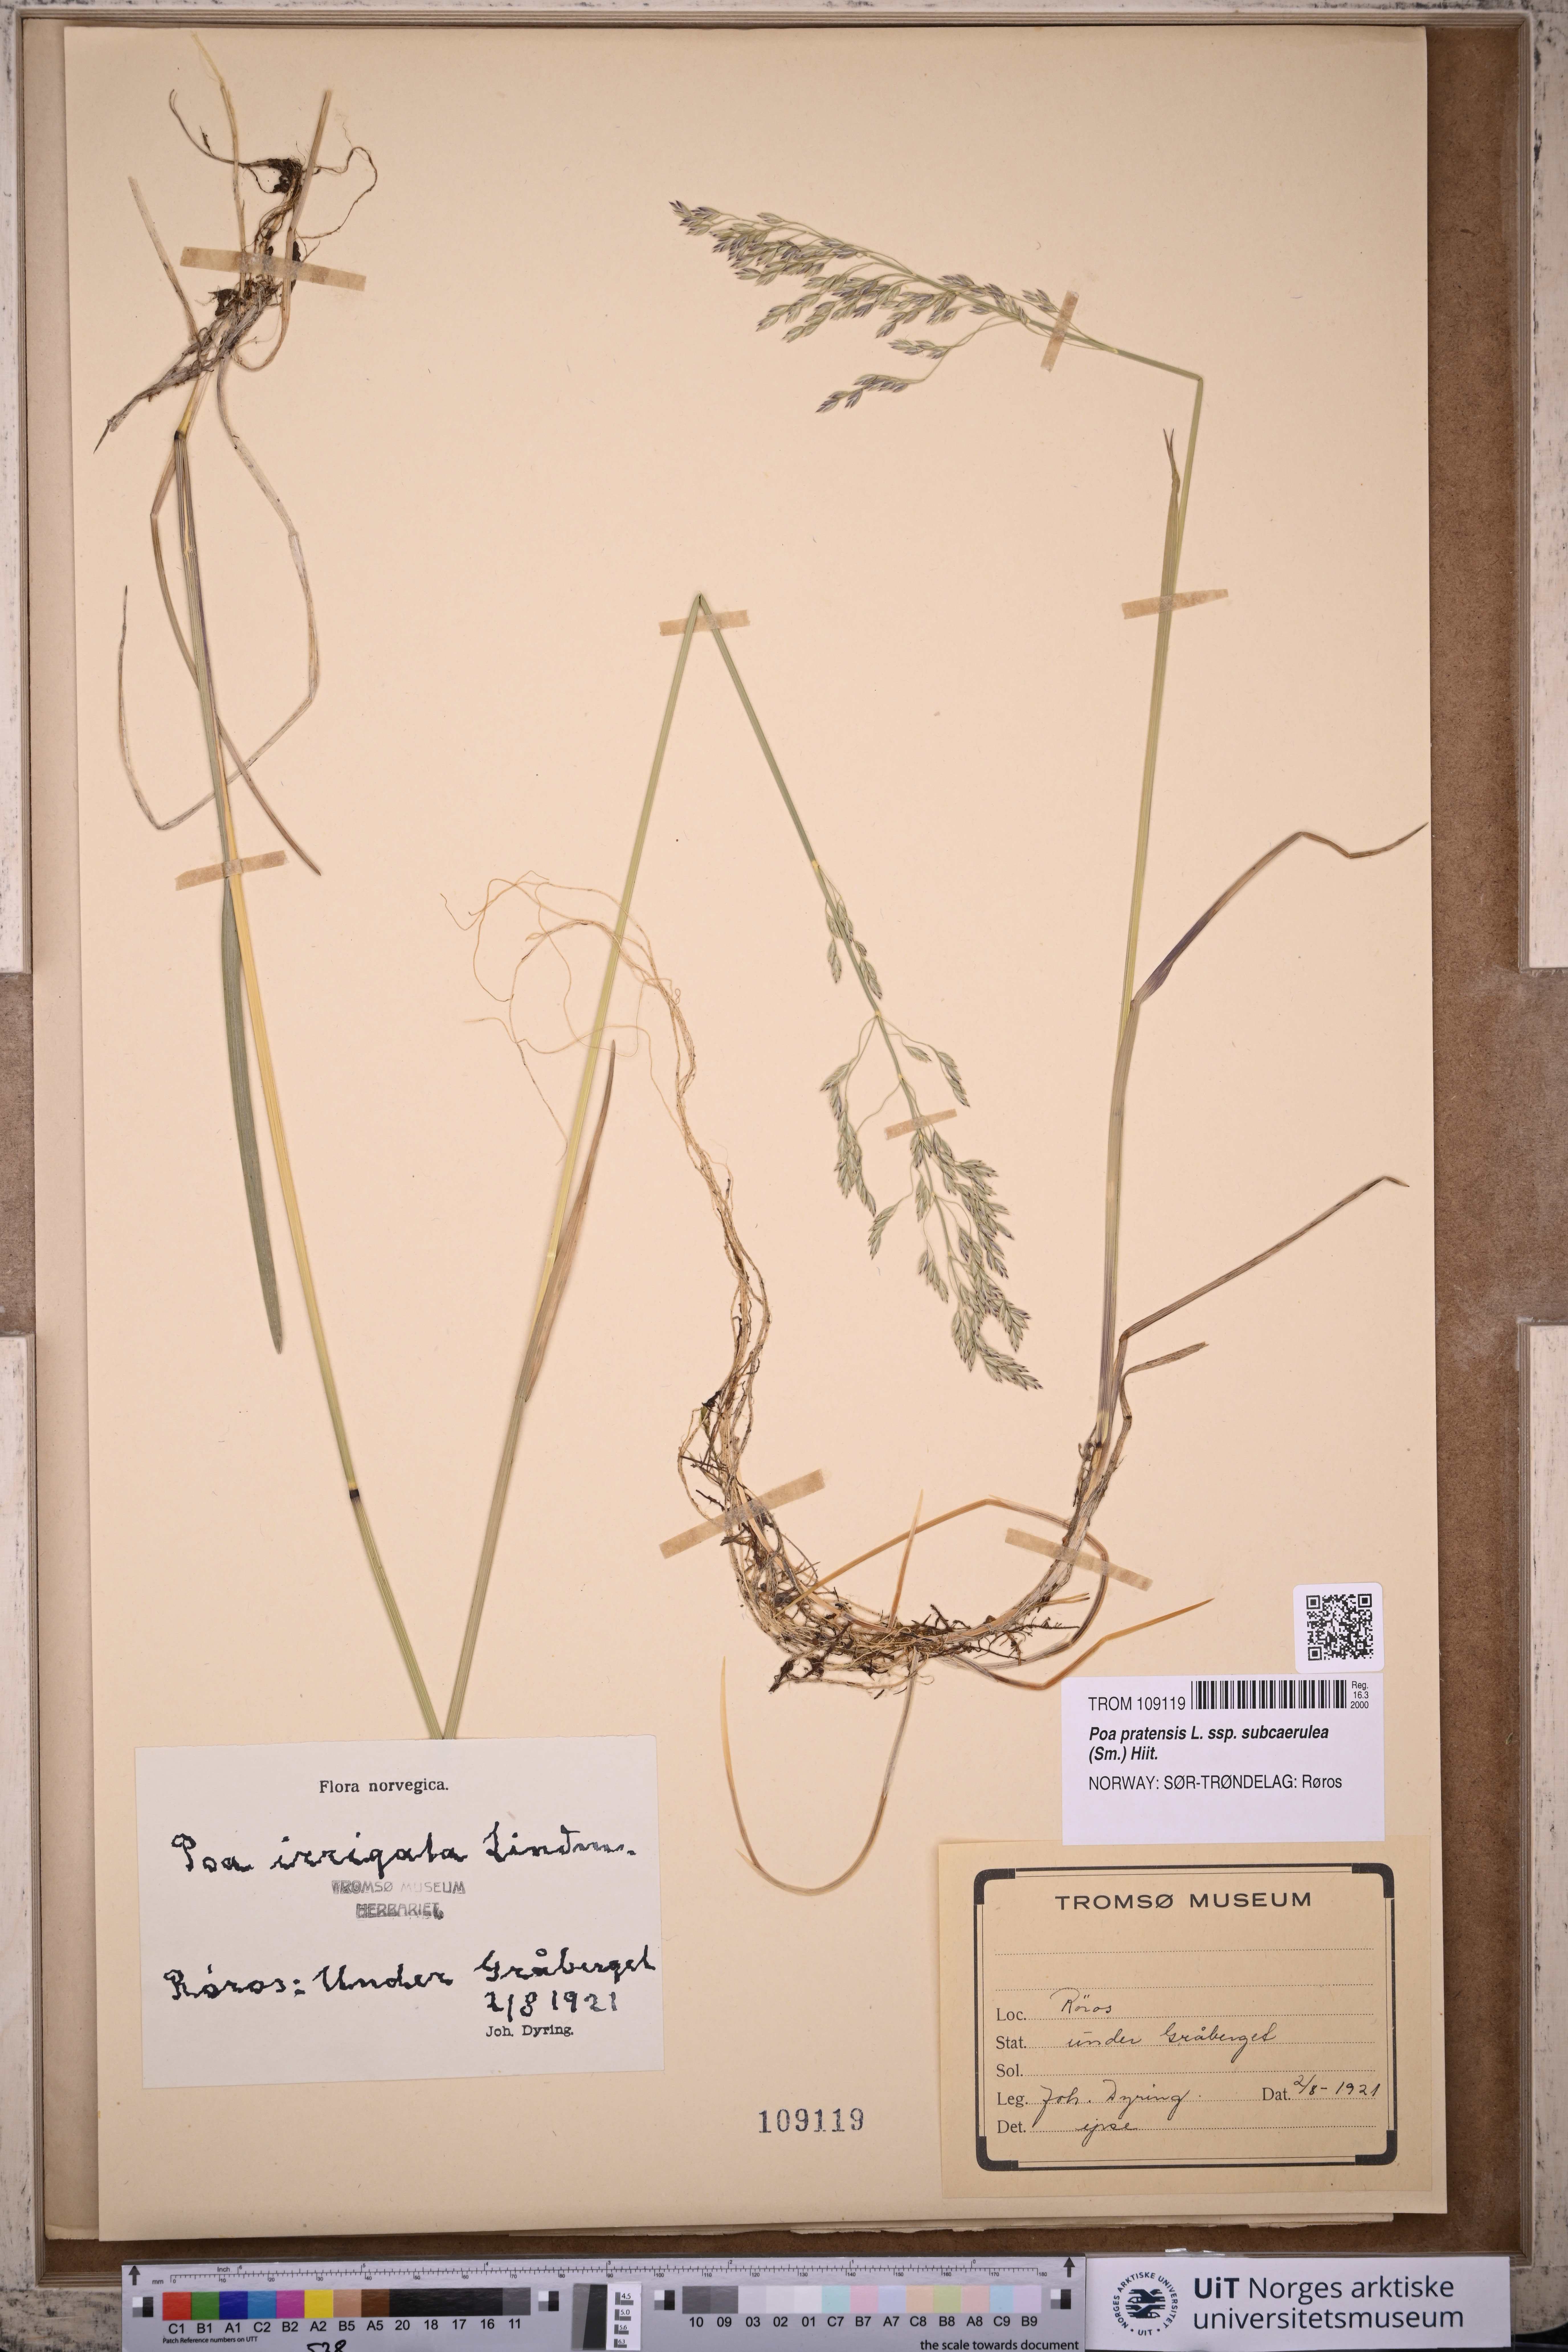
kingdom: Plantae
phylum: Tracheophyta
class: Liliopsida
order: Poales
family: Poaceae
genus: Poa
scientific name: Poa humilis
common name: Spreading meadow-grass
